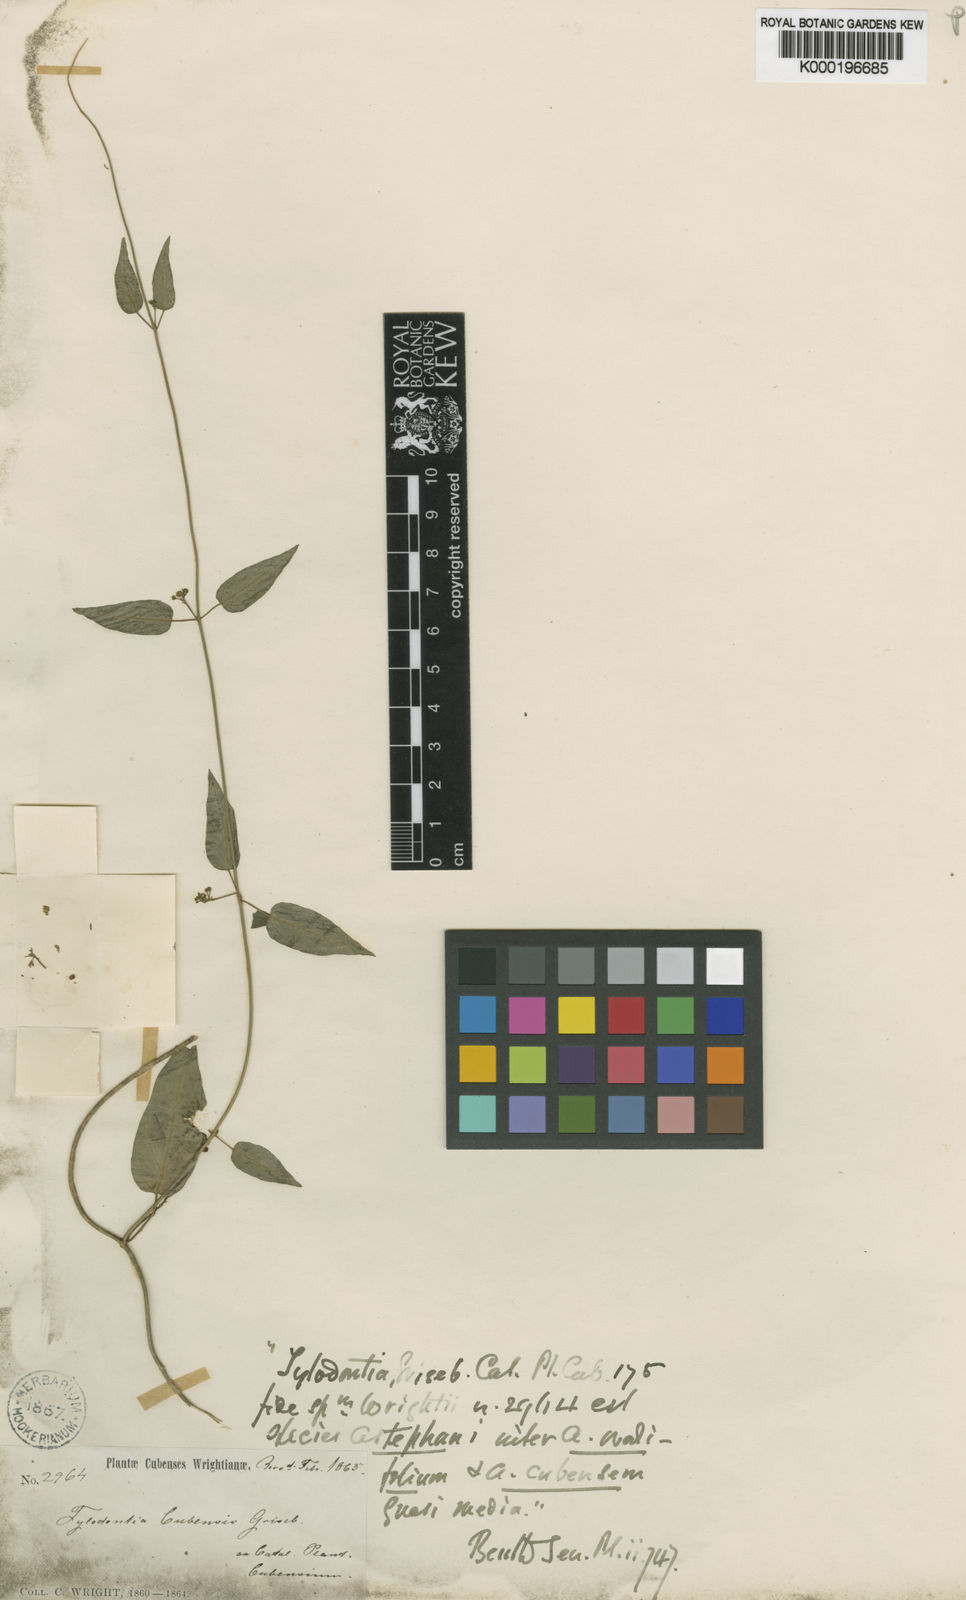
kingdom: Plantae
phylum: Tracheophyta
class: Magnoliopsida
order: Gentianales
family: Apocynaceae
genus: Tylodontia
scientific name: Tylodontia cubensis
